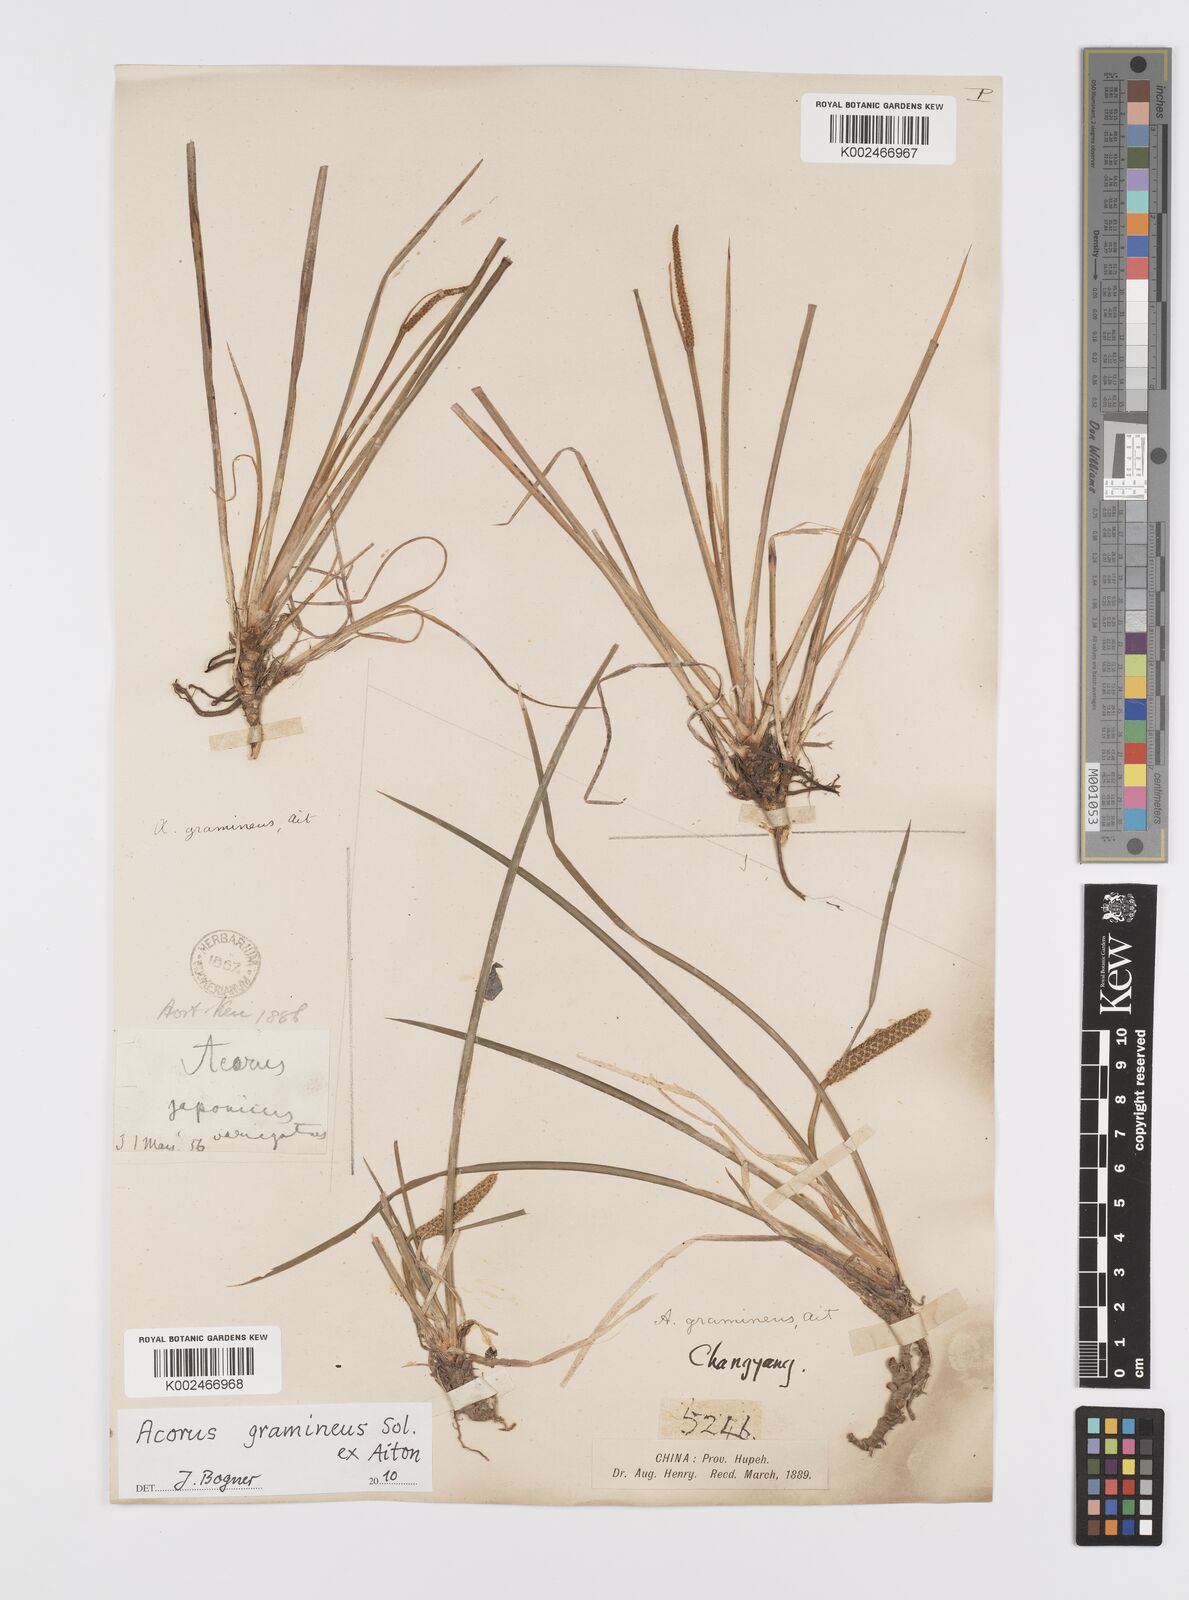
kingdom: Plantae
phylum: Tracheophyta
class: Liliopsida
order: Acorales
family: Acoraceae
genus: Acorus
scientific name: Acorus gramineus
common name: Slender sweet-flag
